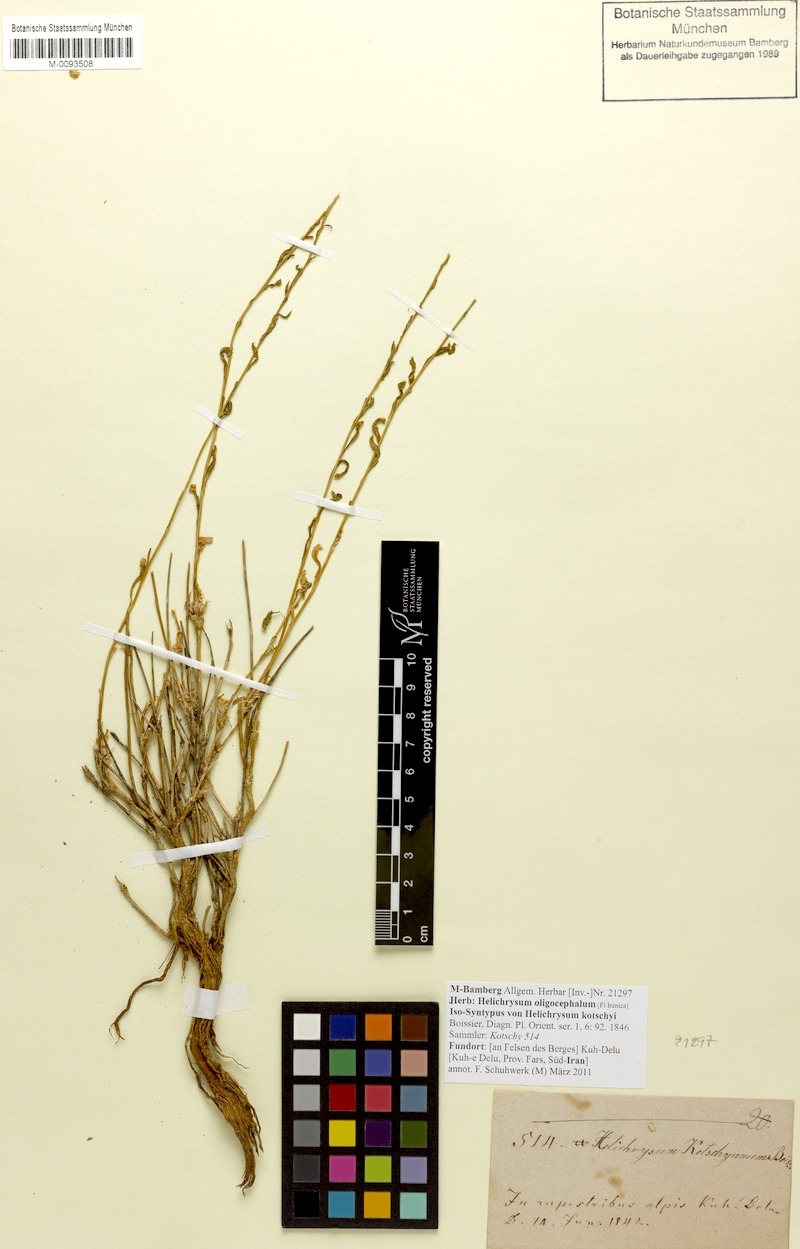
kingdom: Plantae
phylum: Tracheophyta
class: Magnoliopsida
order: Asterales
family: Asteraceae
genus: Helichrysum
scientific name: Helichrysum oligocephalum
